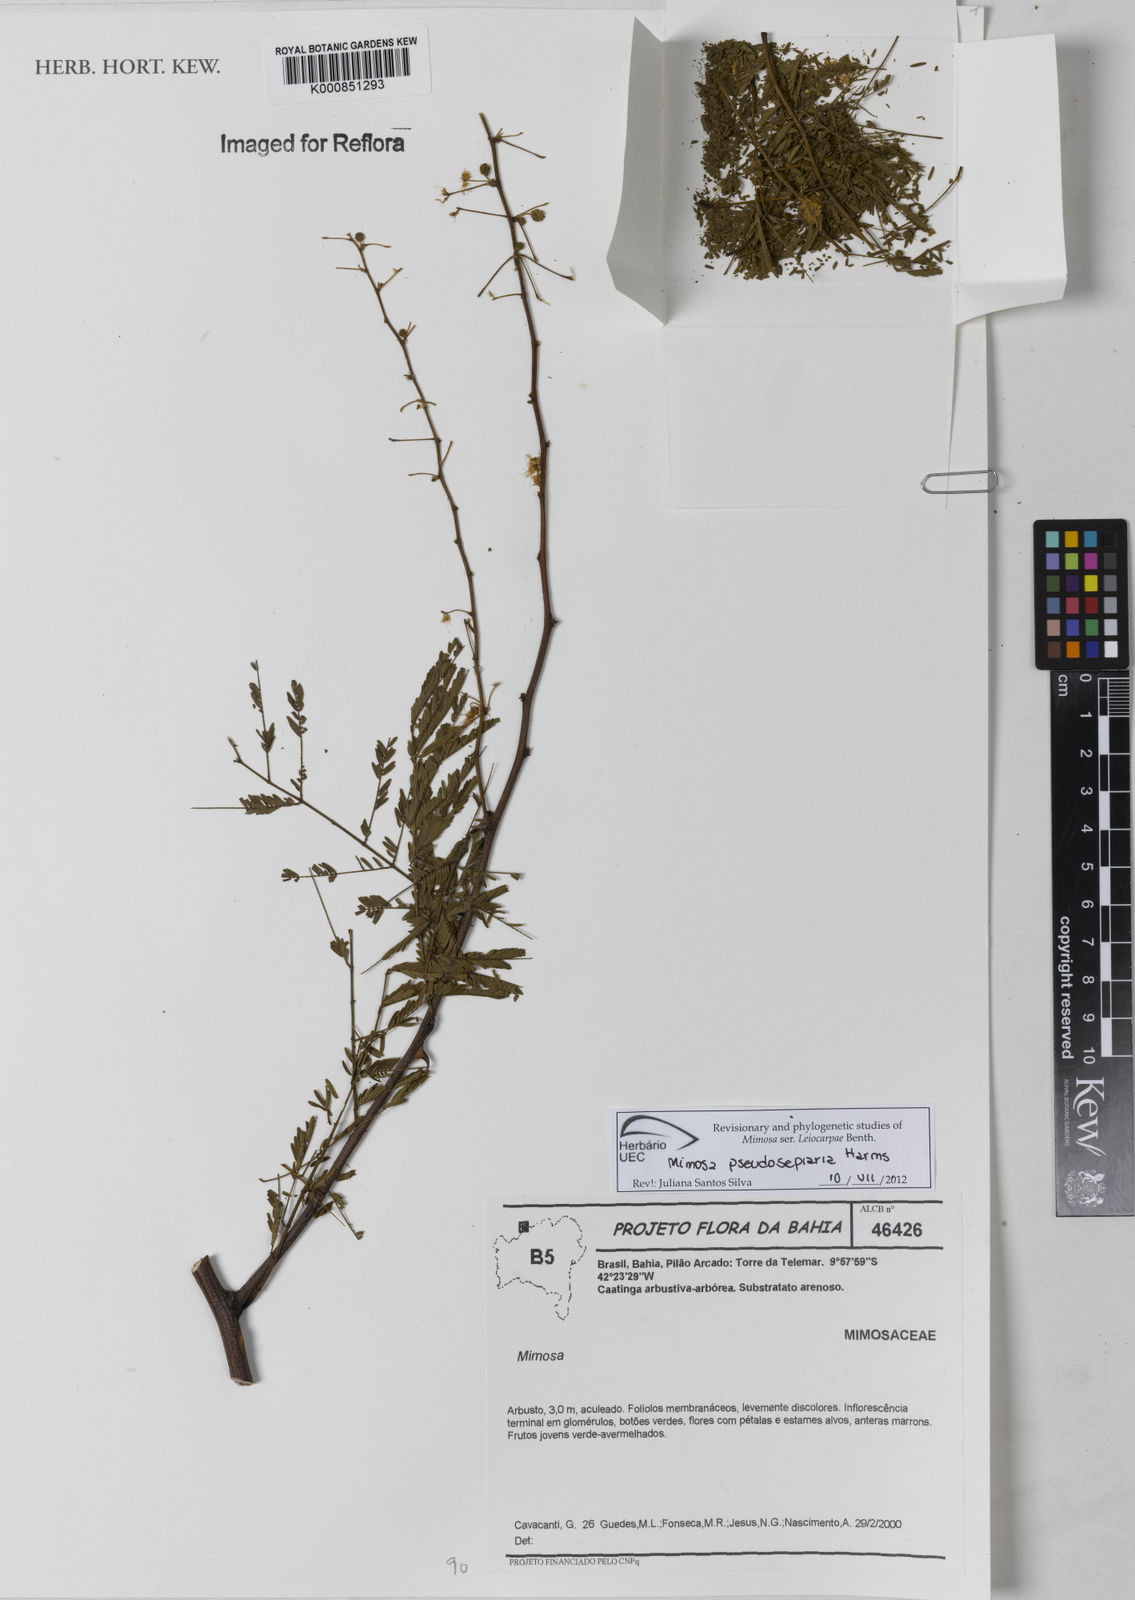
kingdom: Plantae
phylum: Tracheophyta
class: Magnoliopsida
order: Fabales
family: Fabaceae
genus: Mimosa
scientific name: Mimosa pseudosepiaria
